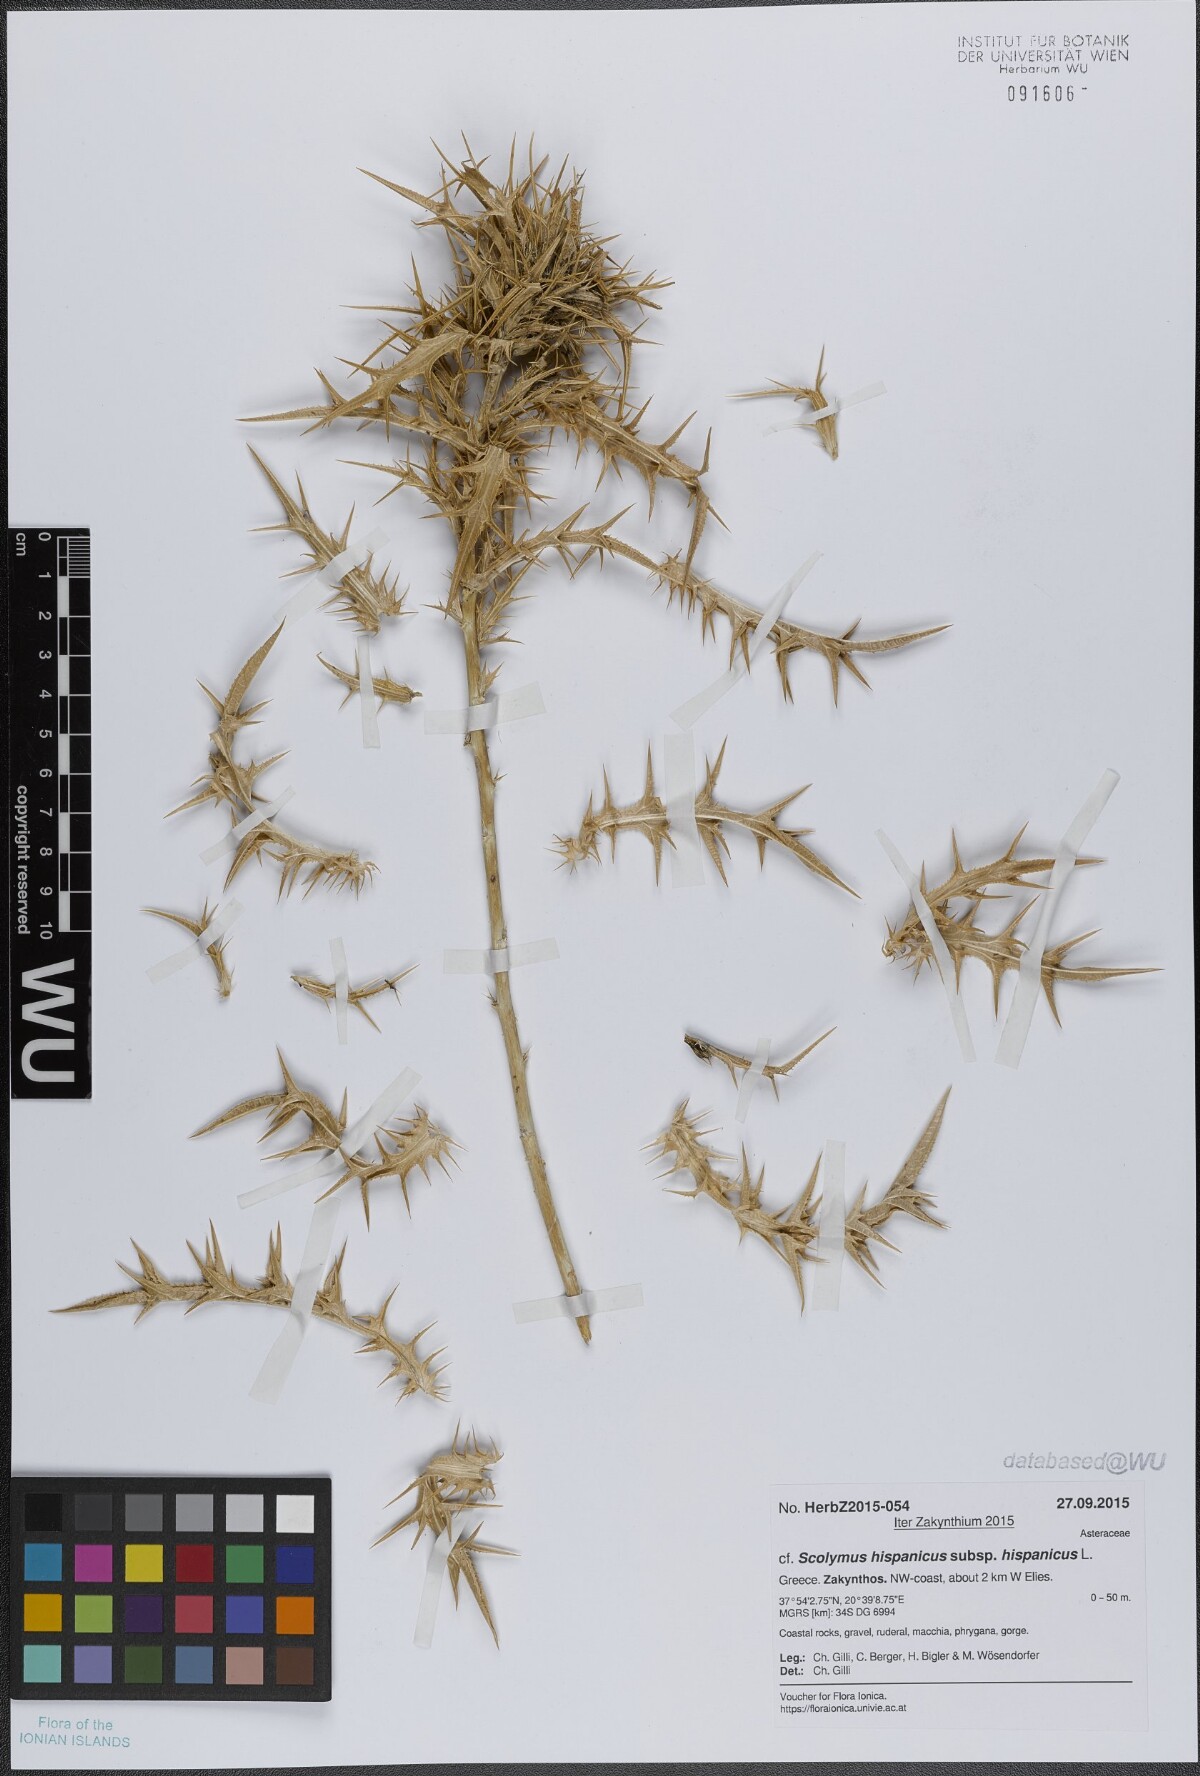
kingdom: Plantae
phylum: Tracheophyta
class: Magnoliopsida
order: Asterales
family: Asteraceae
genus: Scolymus
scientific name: Scolymus hispanicus
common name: Golden thistle
